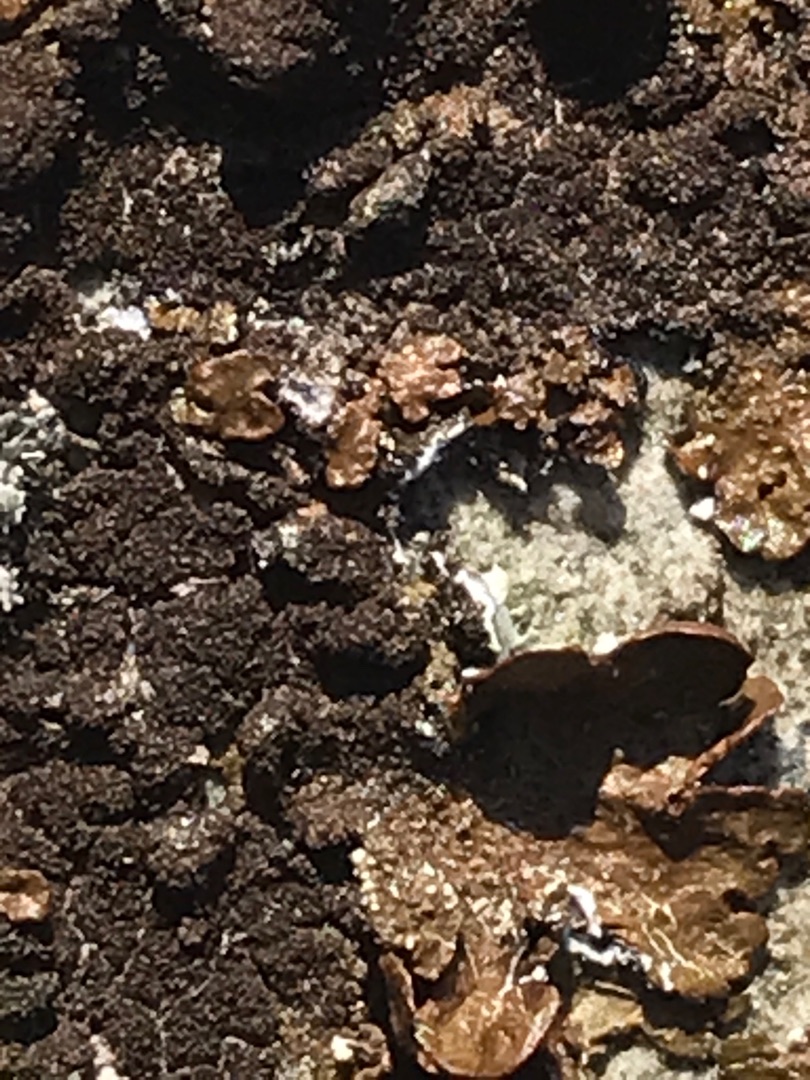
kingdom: Fungi
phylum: Ascomycota
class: Lecanoromycetes
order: Lecanorales
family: Parmeliaceae
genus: Melanelixia
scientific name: Melanelixia fuliginosa
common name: Sod-skållav
